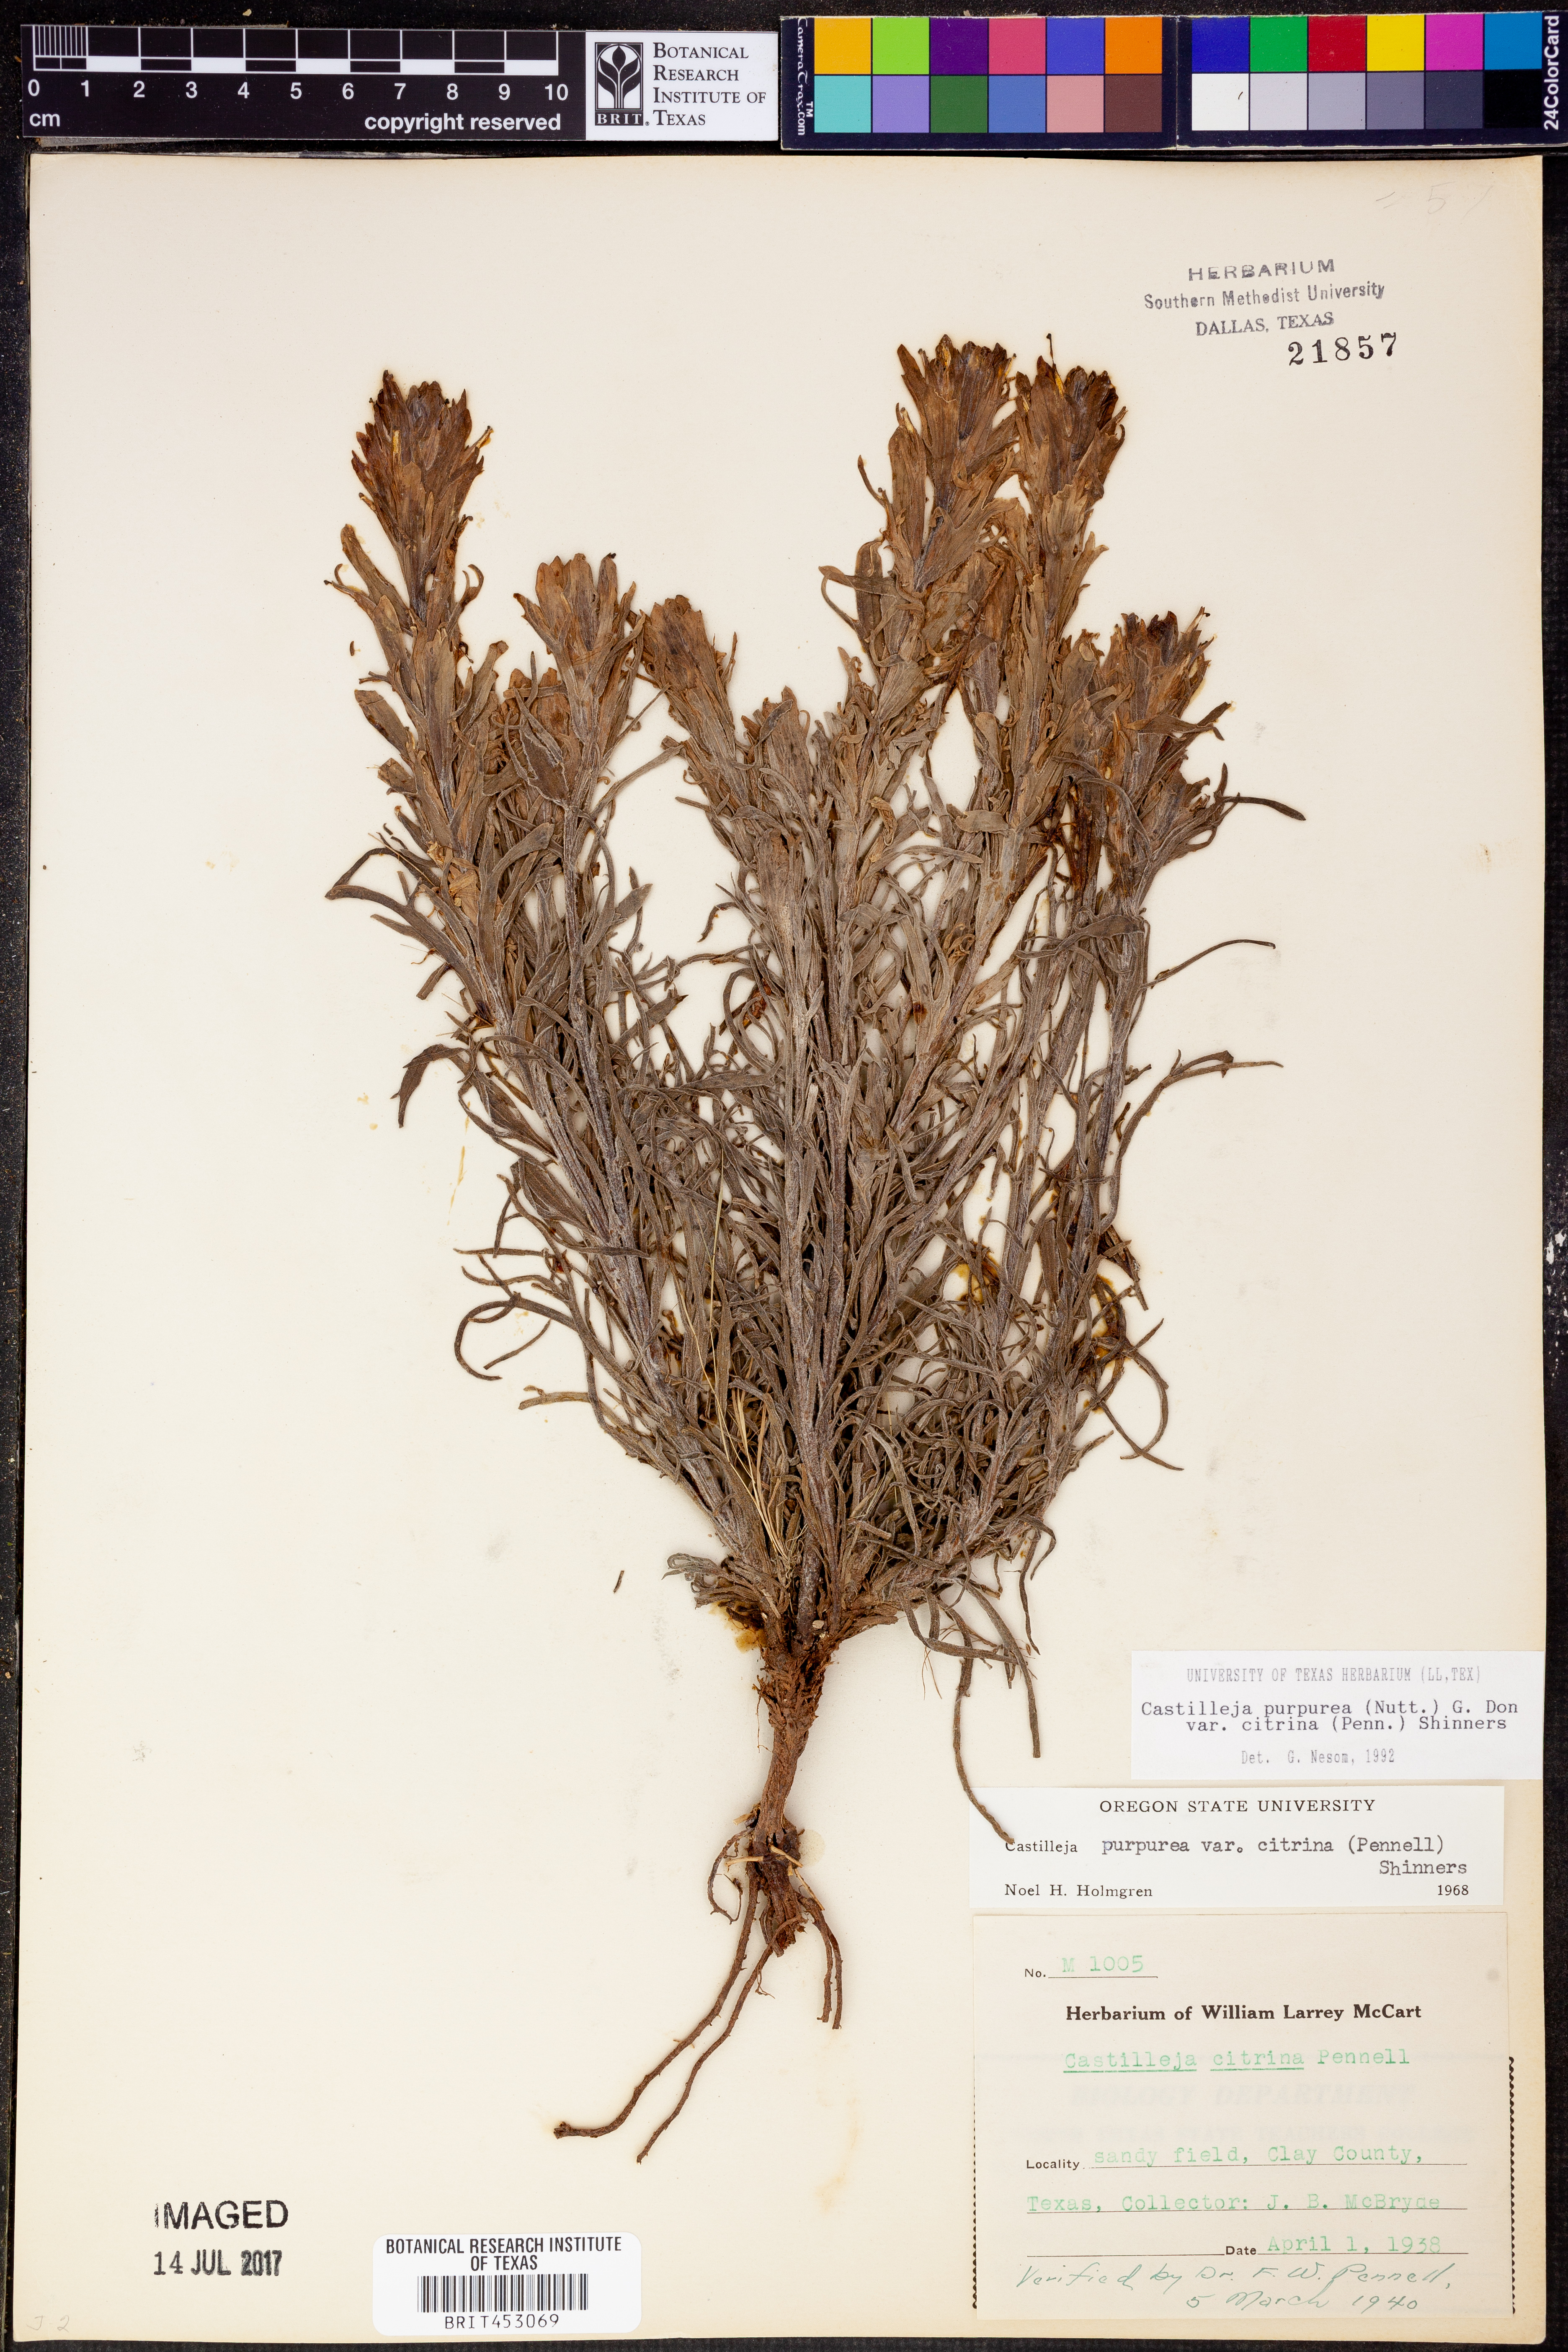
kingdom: Plantae
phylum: Tracheophyta
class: Magnoliopsida
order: Lamiales
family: Orobanchaceae
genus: Castilleja
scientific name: Castilleja citrina
